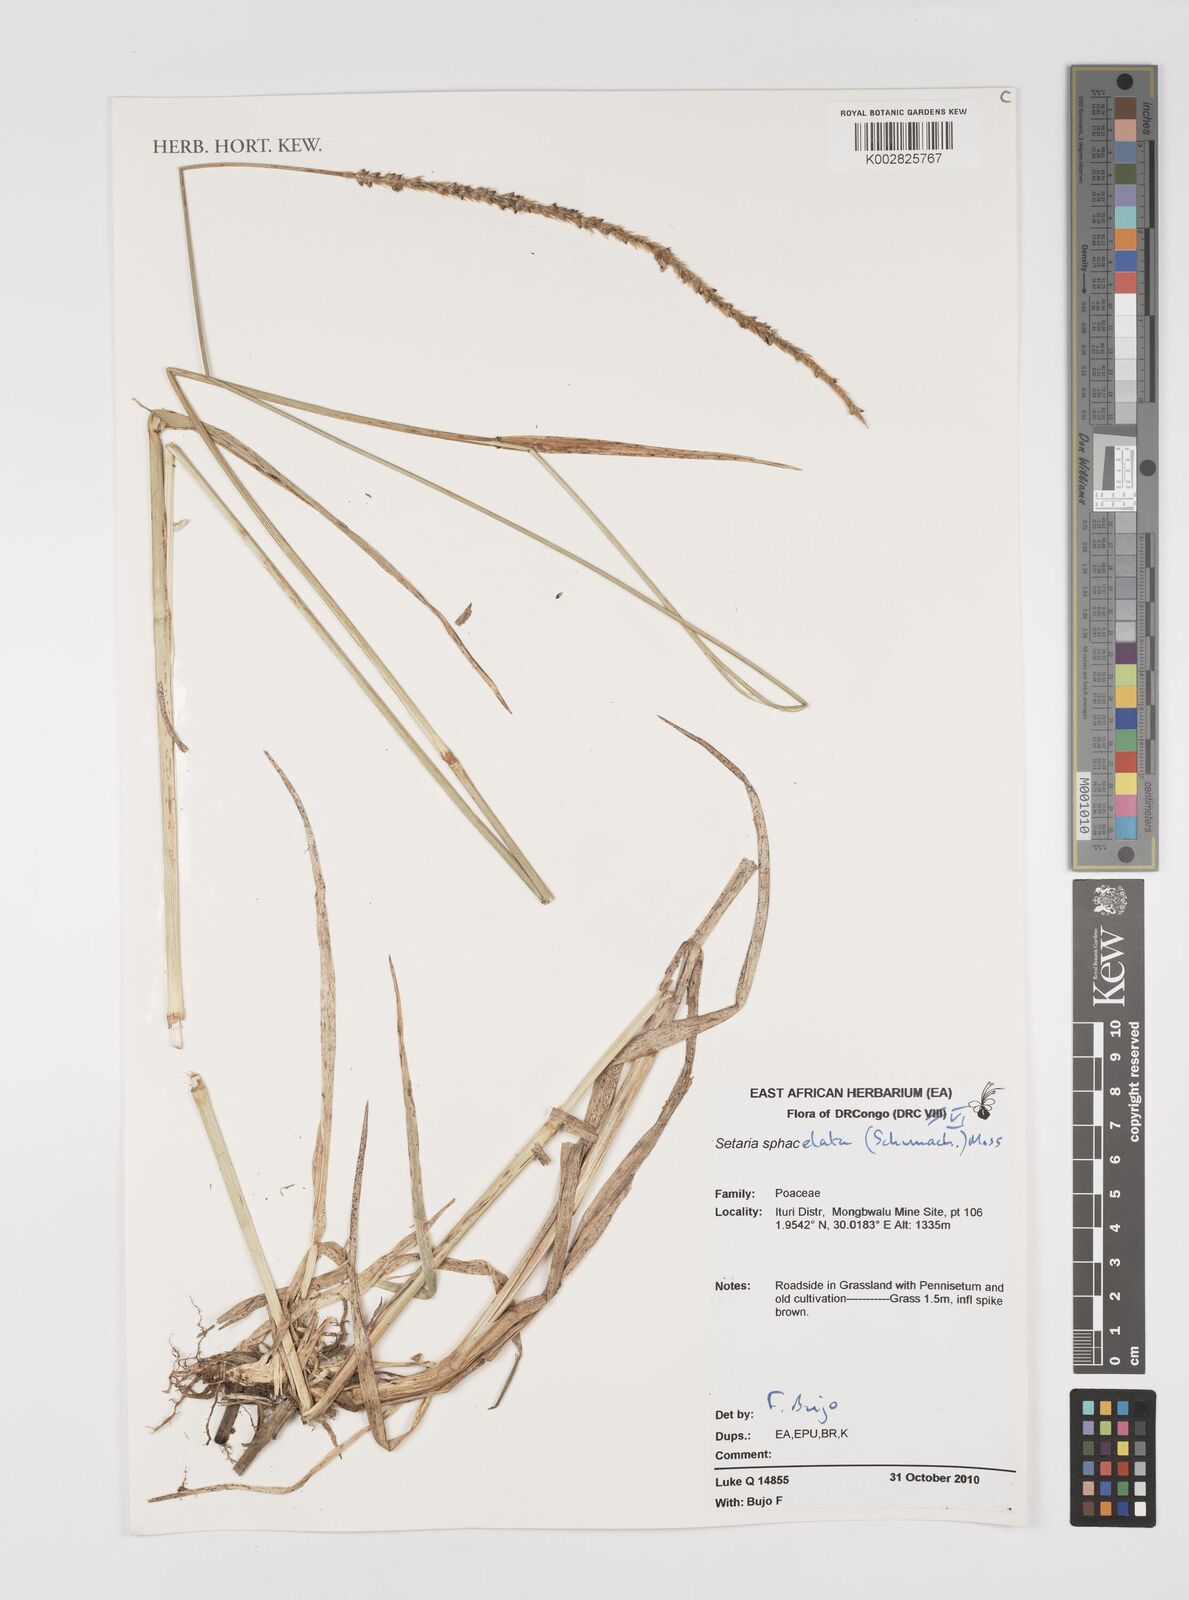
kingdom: Plantae
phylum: Tracheophyta
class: Liliopsida
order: Poales
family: Poaceae
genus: Setaria
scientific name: Setaria sphacelata
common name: African bristlegrass
